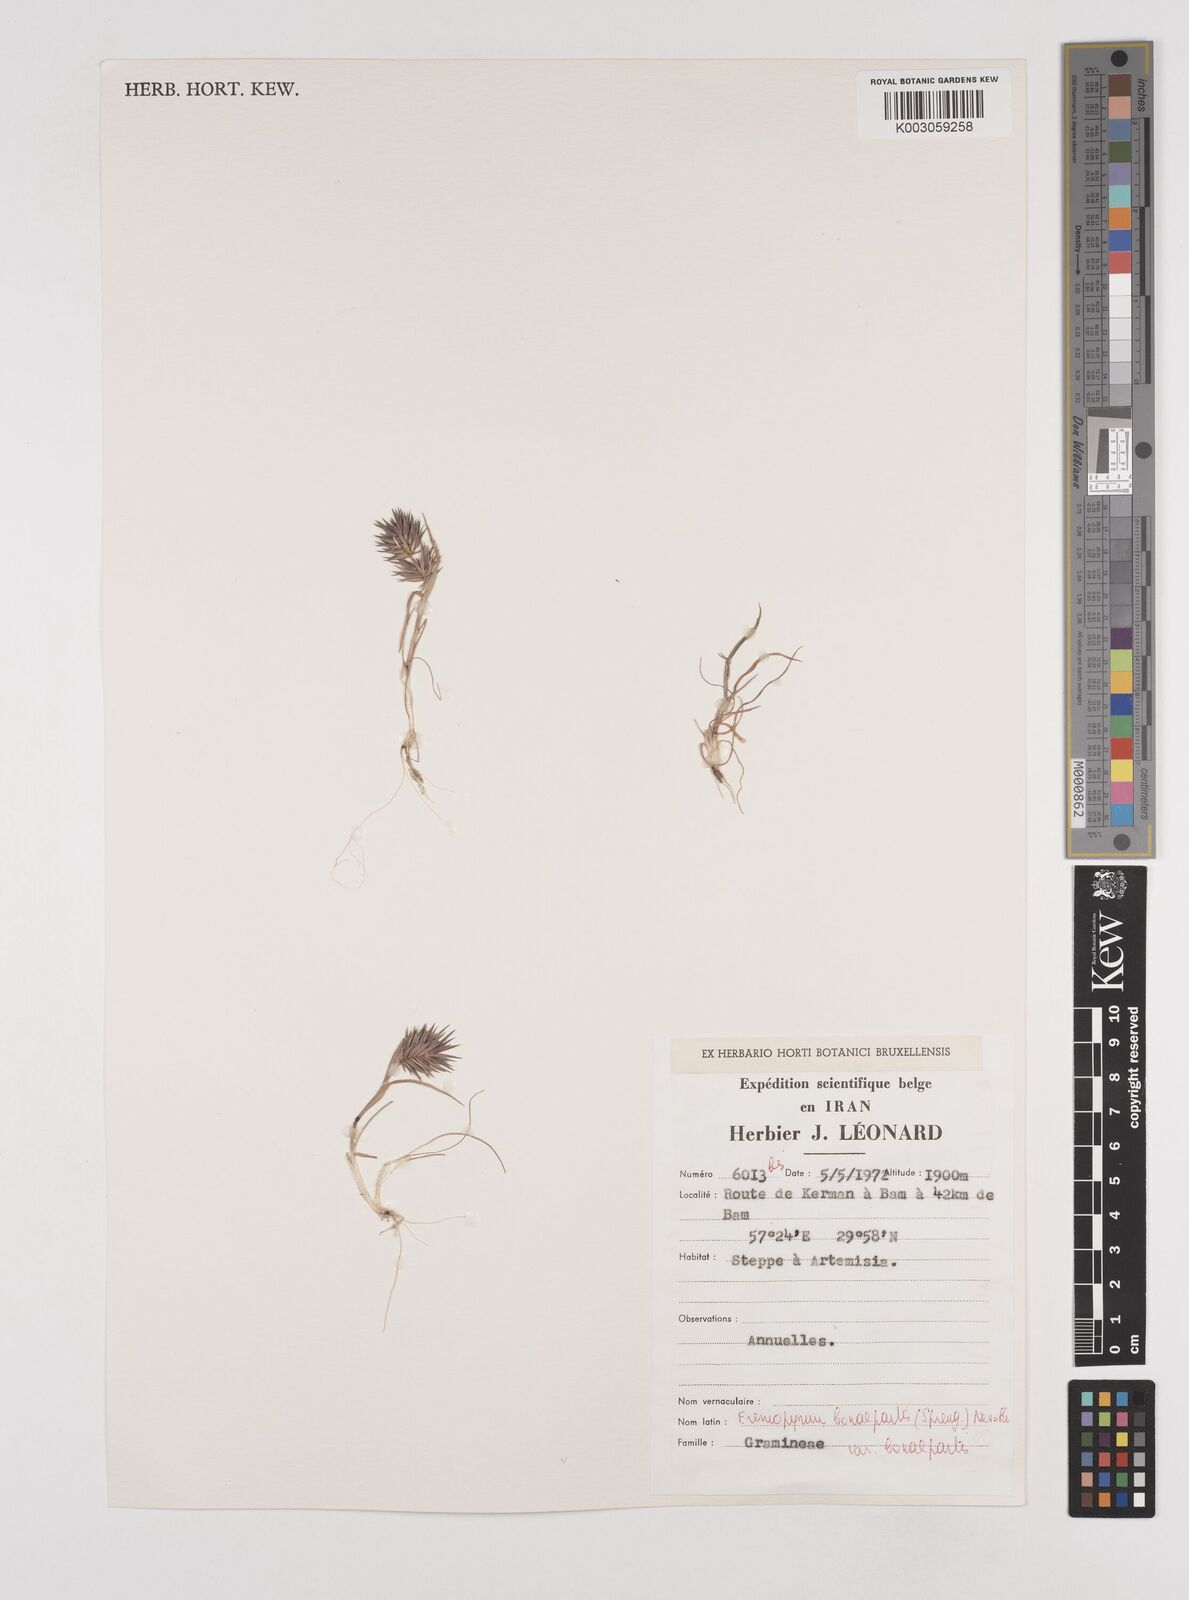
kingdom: Plantae
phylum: Tracheophyta
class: Liliopsida
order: Poales
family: Poaceae
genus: Eremopyrum
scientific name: Eremopyrum bonaepartis
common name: Tapertip false wheatgrass
